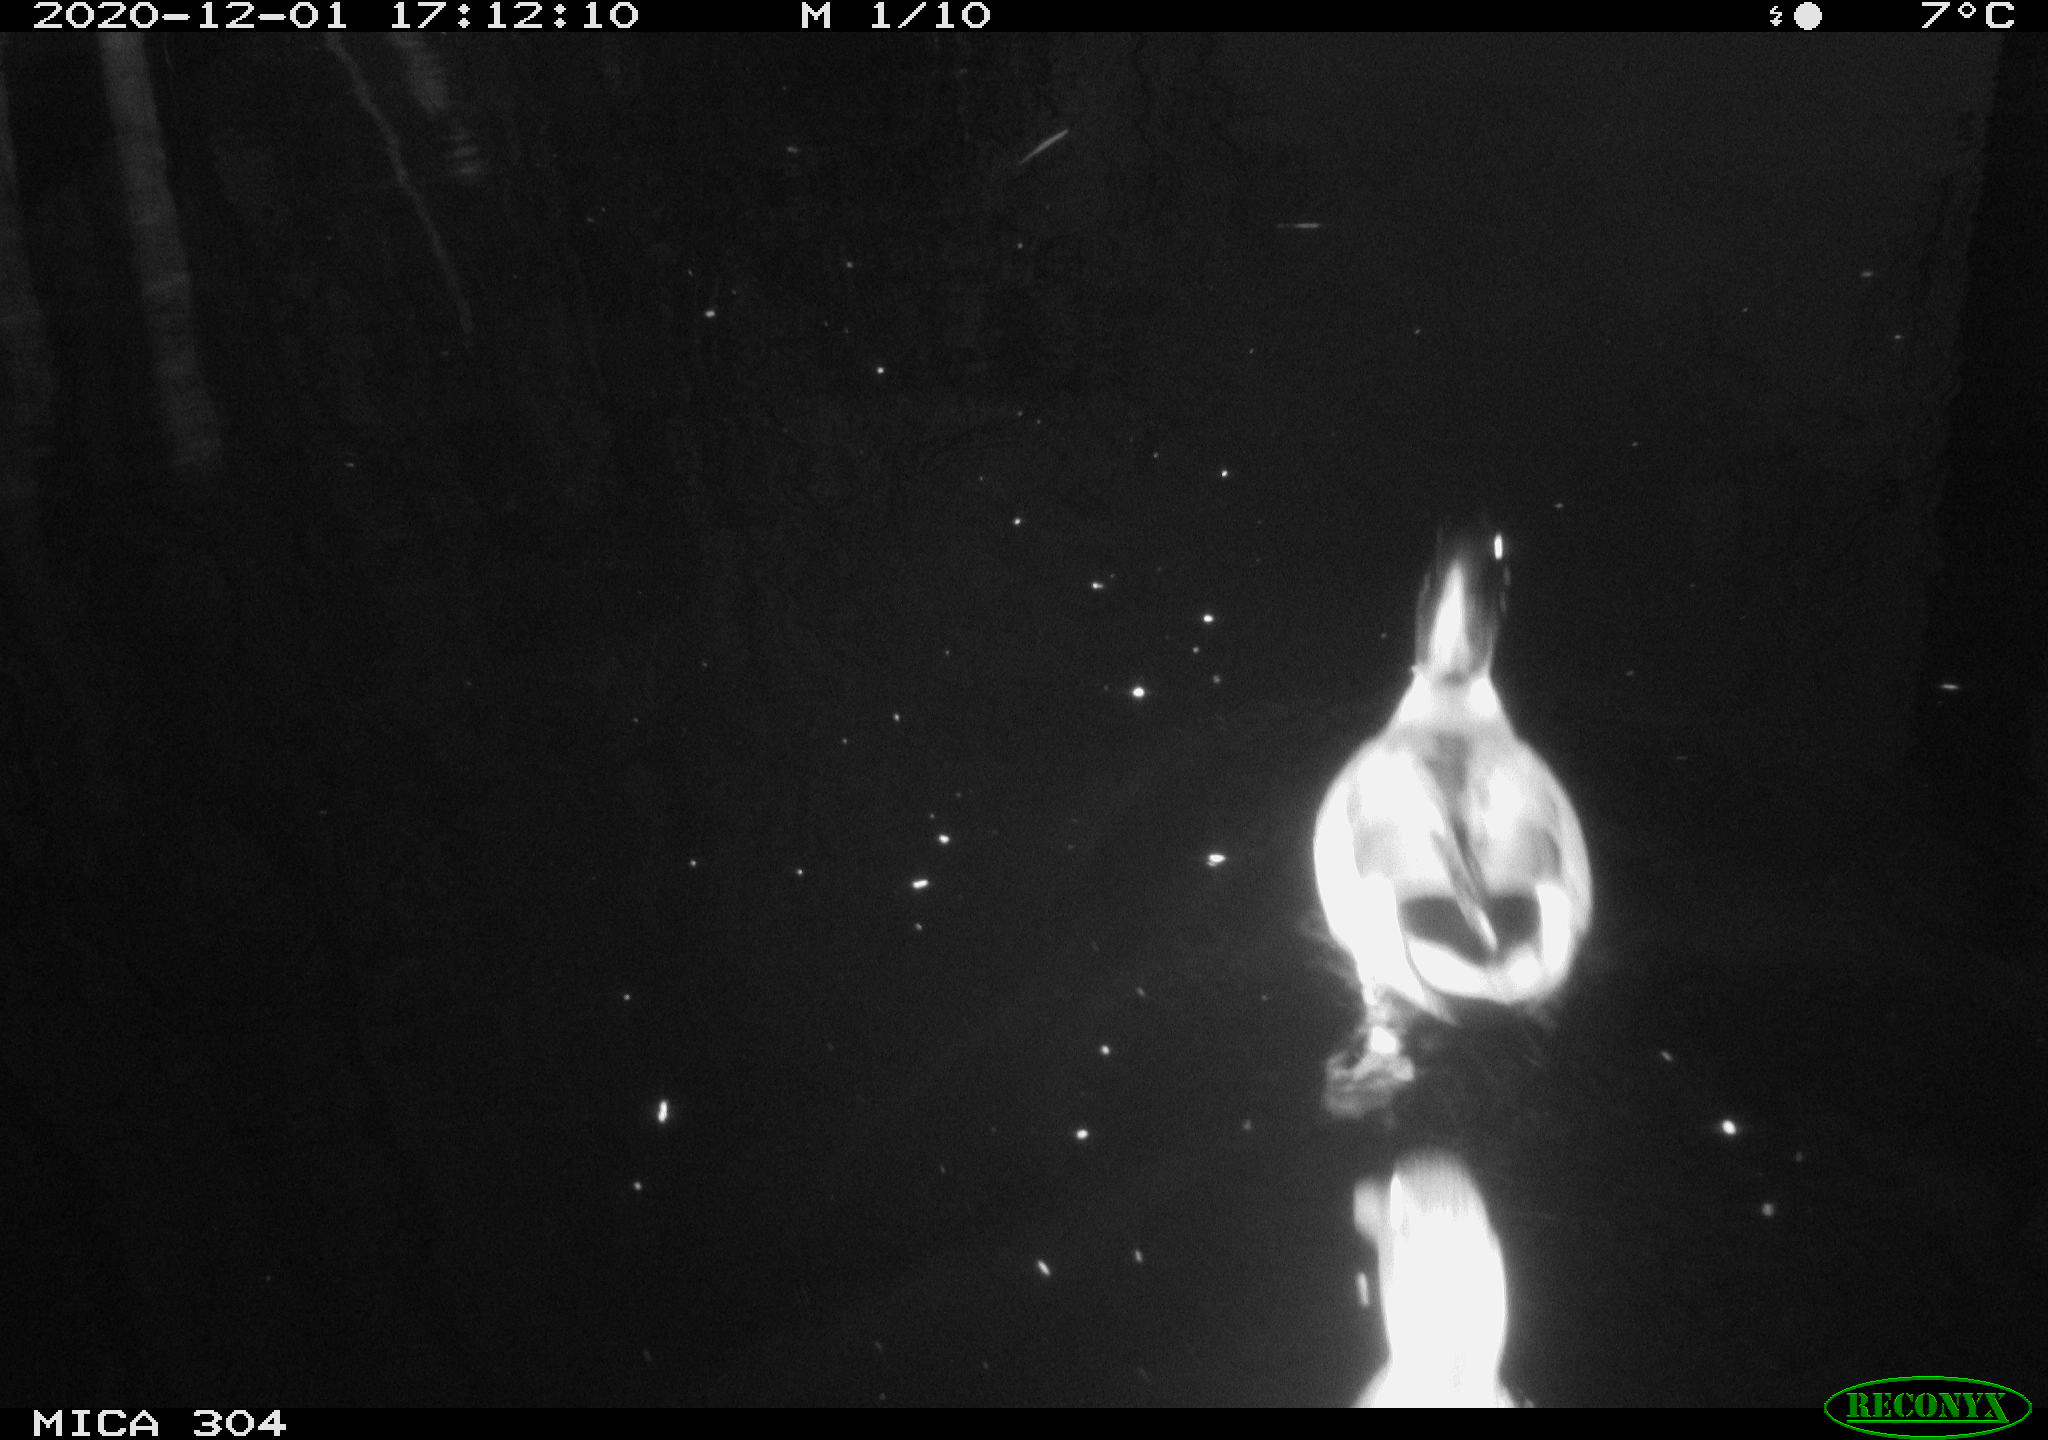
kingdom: Animalia
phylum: Chordata
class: Aves
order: Anseriformes
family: Anatidae
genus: Anas
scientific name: Anas platyrhynchos
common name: Mallard
